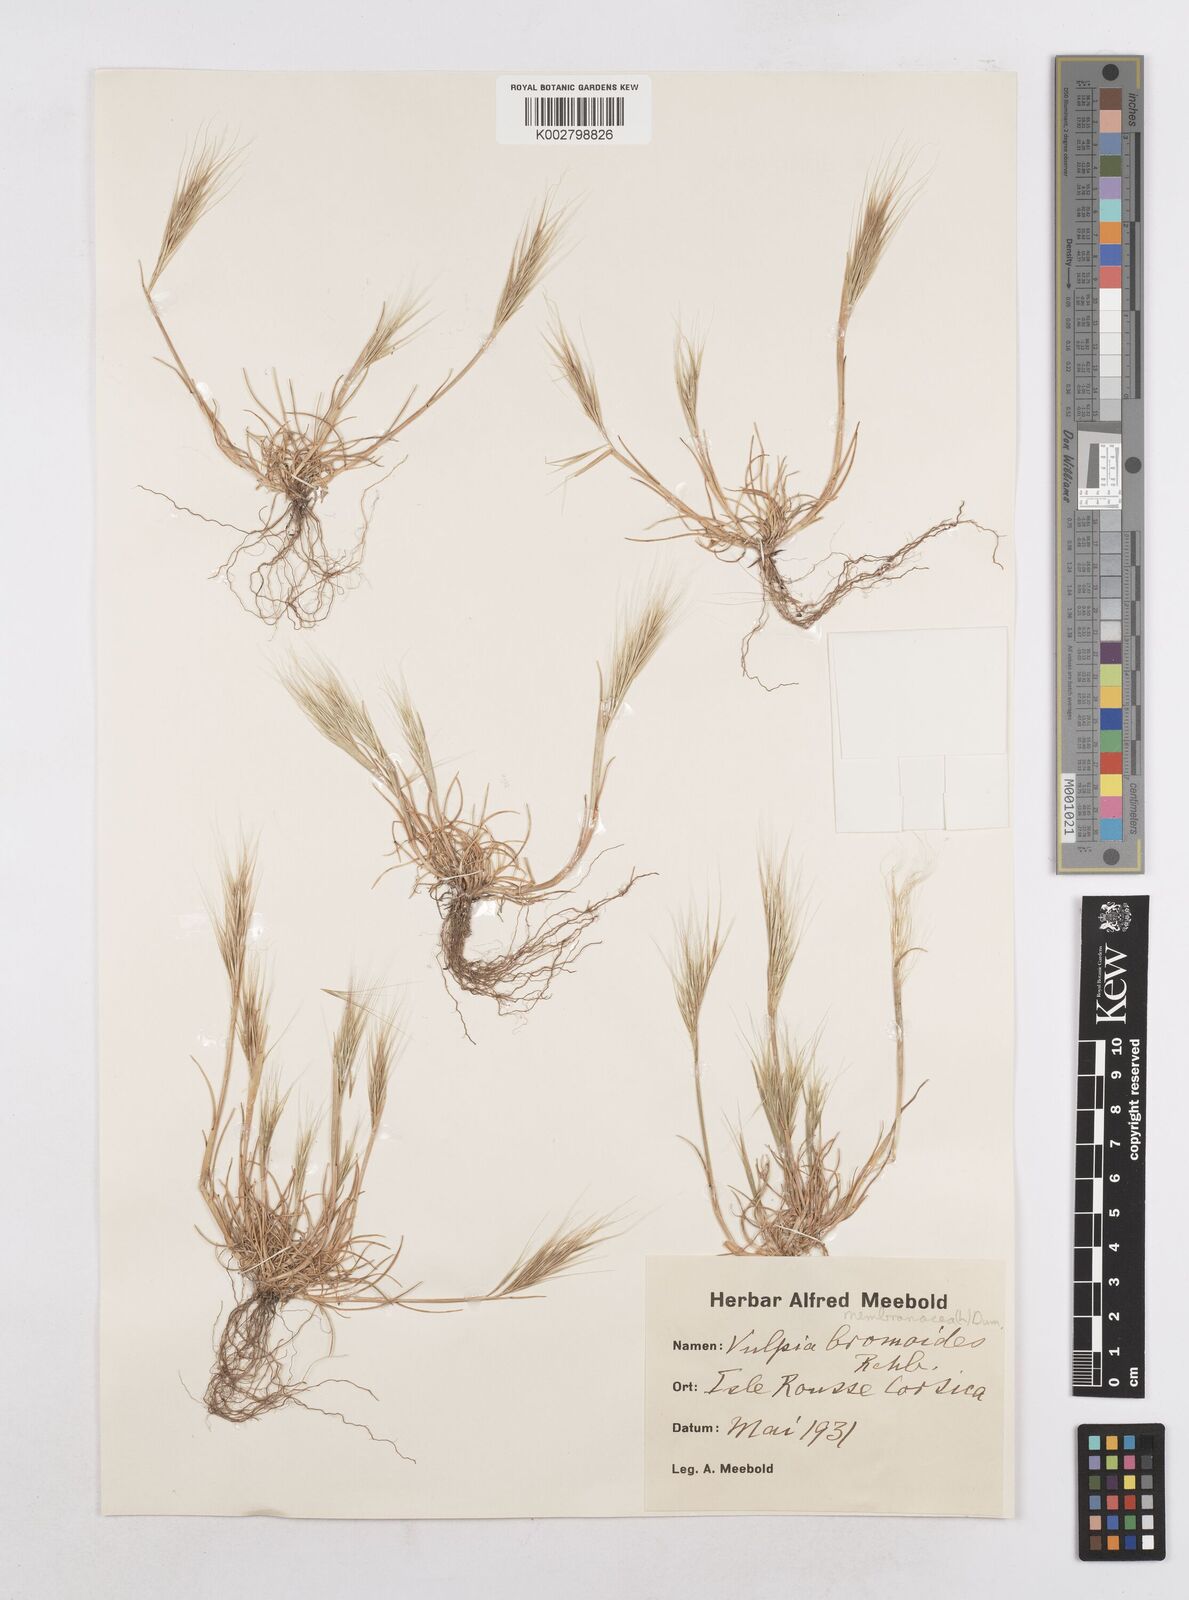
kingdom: Plantae
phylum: Tracheophyta
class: Liliopsida
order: Poales
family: Poaceae
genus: Festuca
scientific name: Festuca membranacea
